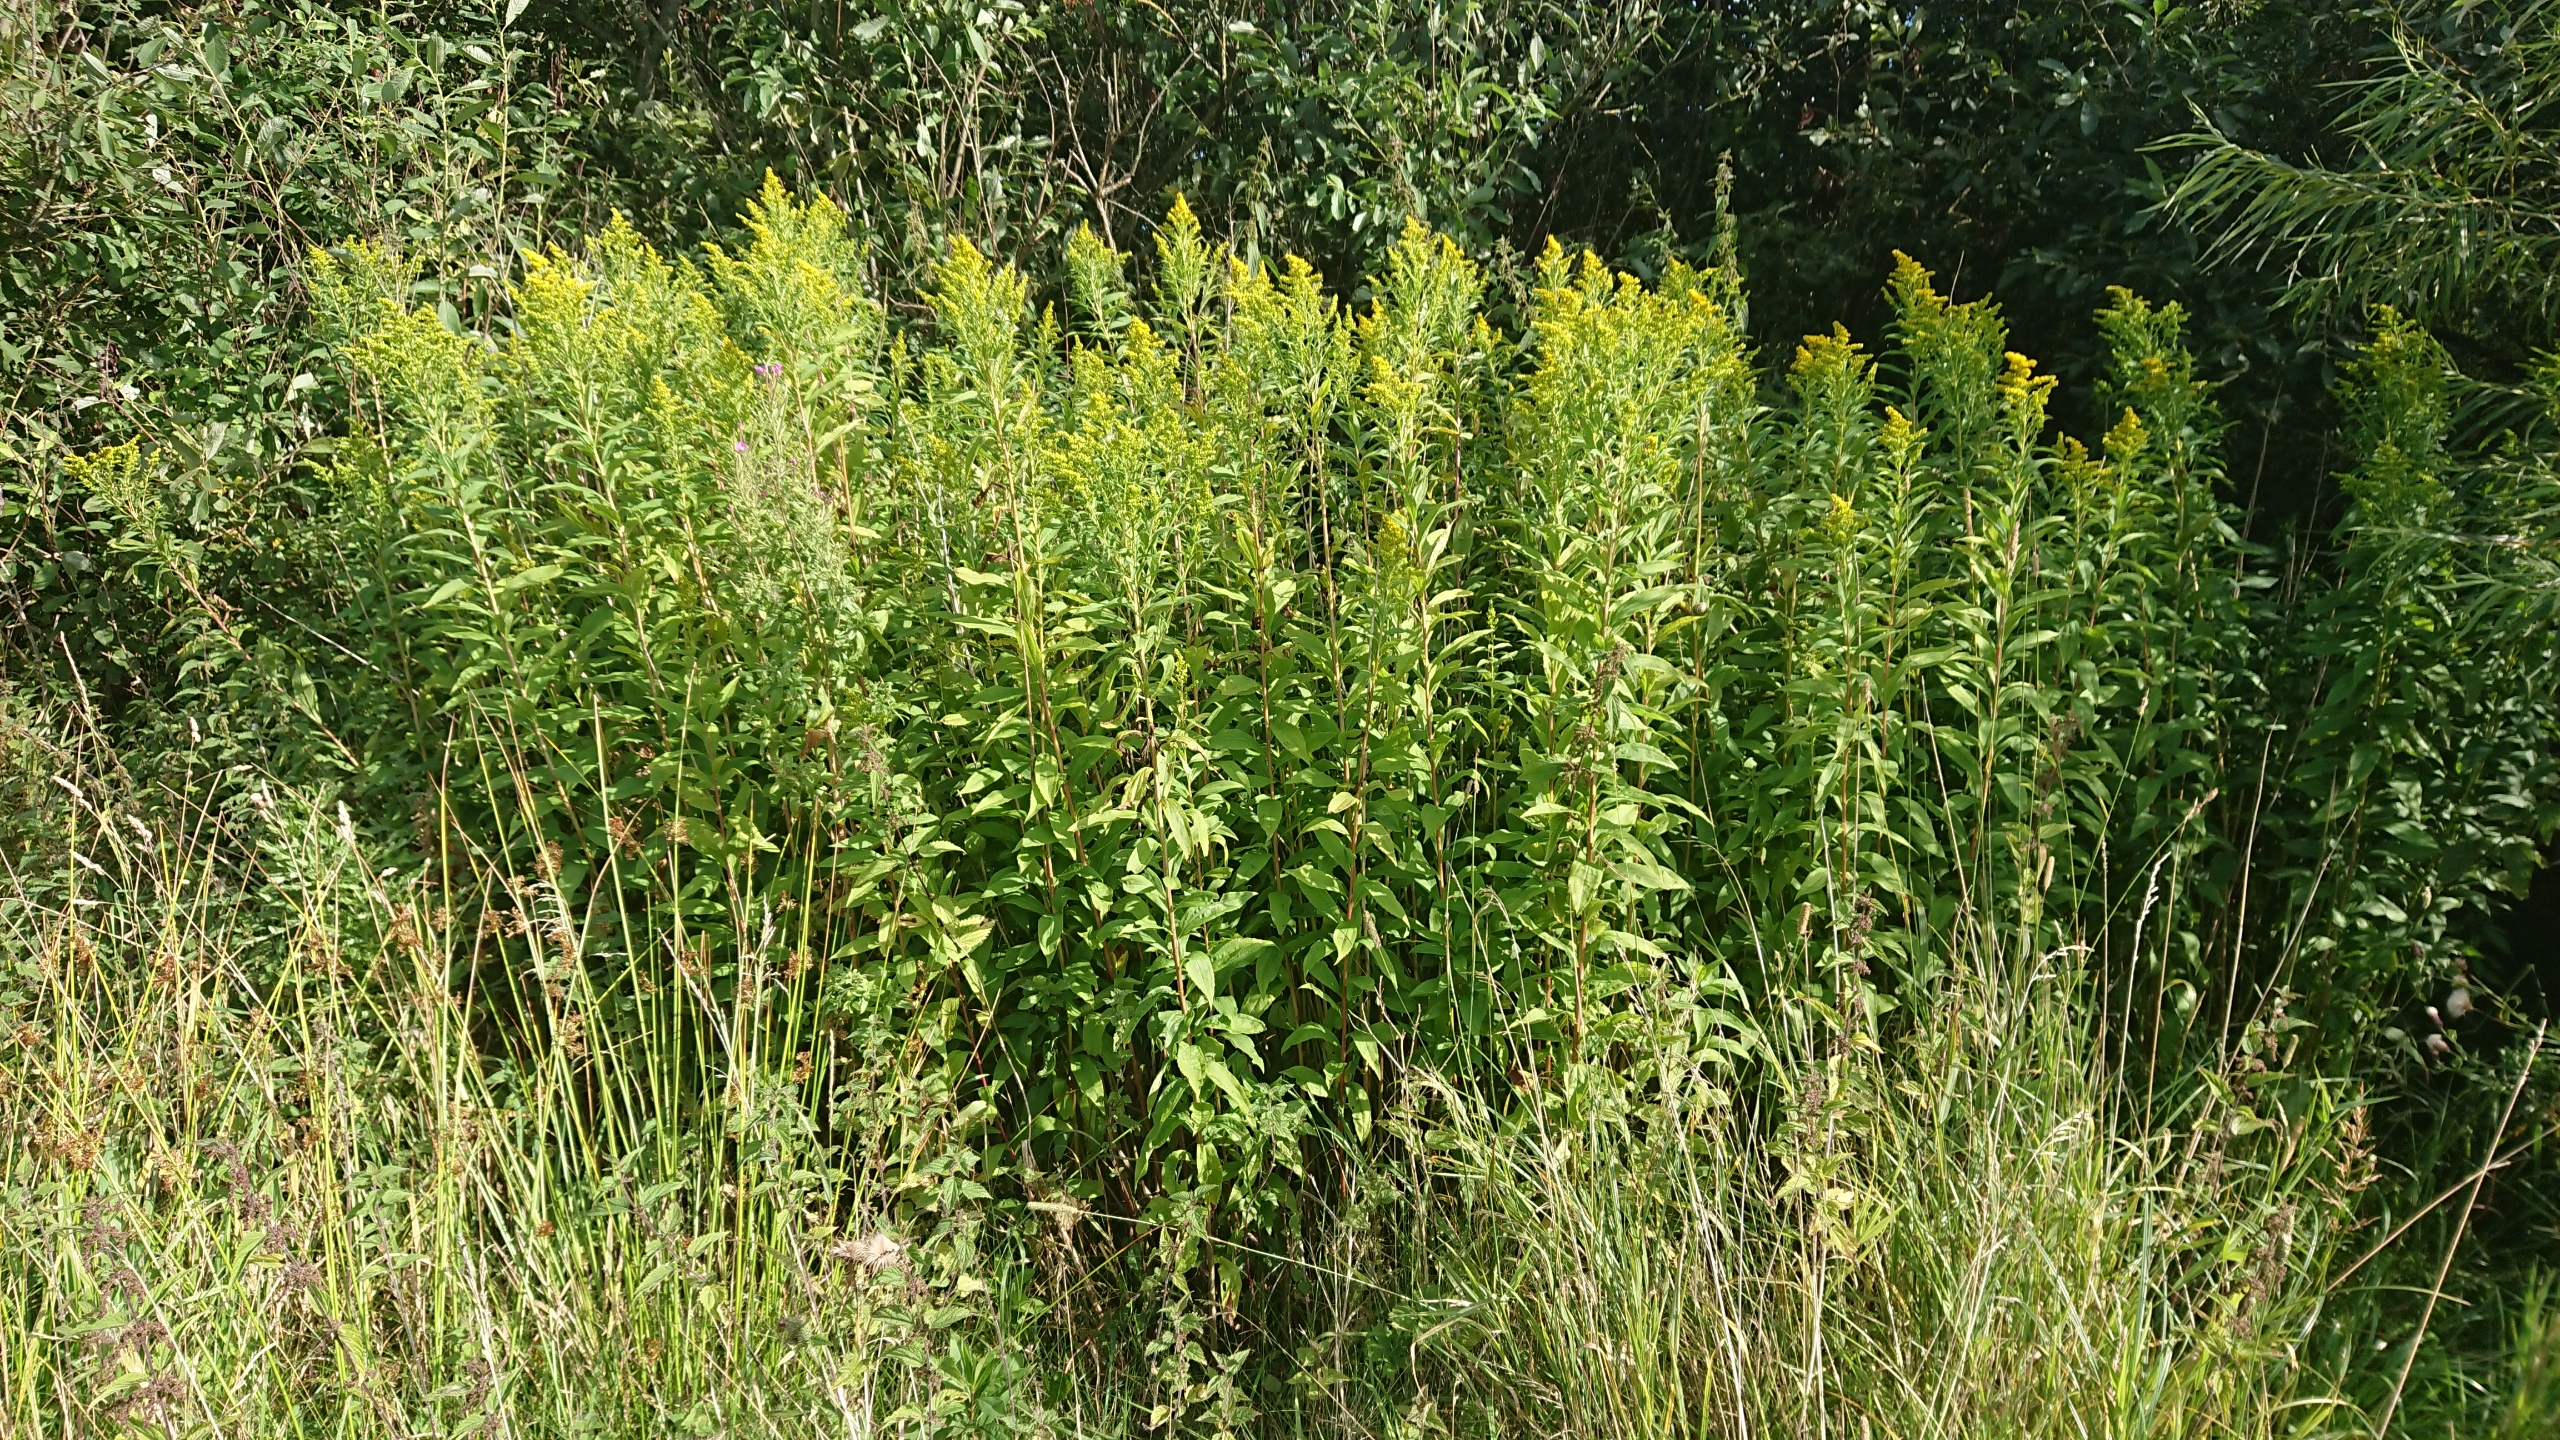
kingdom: Plantae
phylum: Tracheophyta
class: Magnoliopsida
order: Asterales
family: Asteraceae
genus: Solidago
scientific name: Solidago gigantea
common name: Sildig gyldenris
